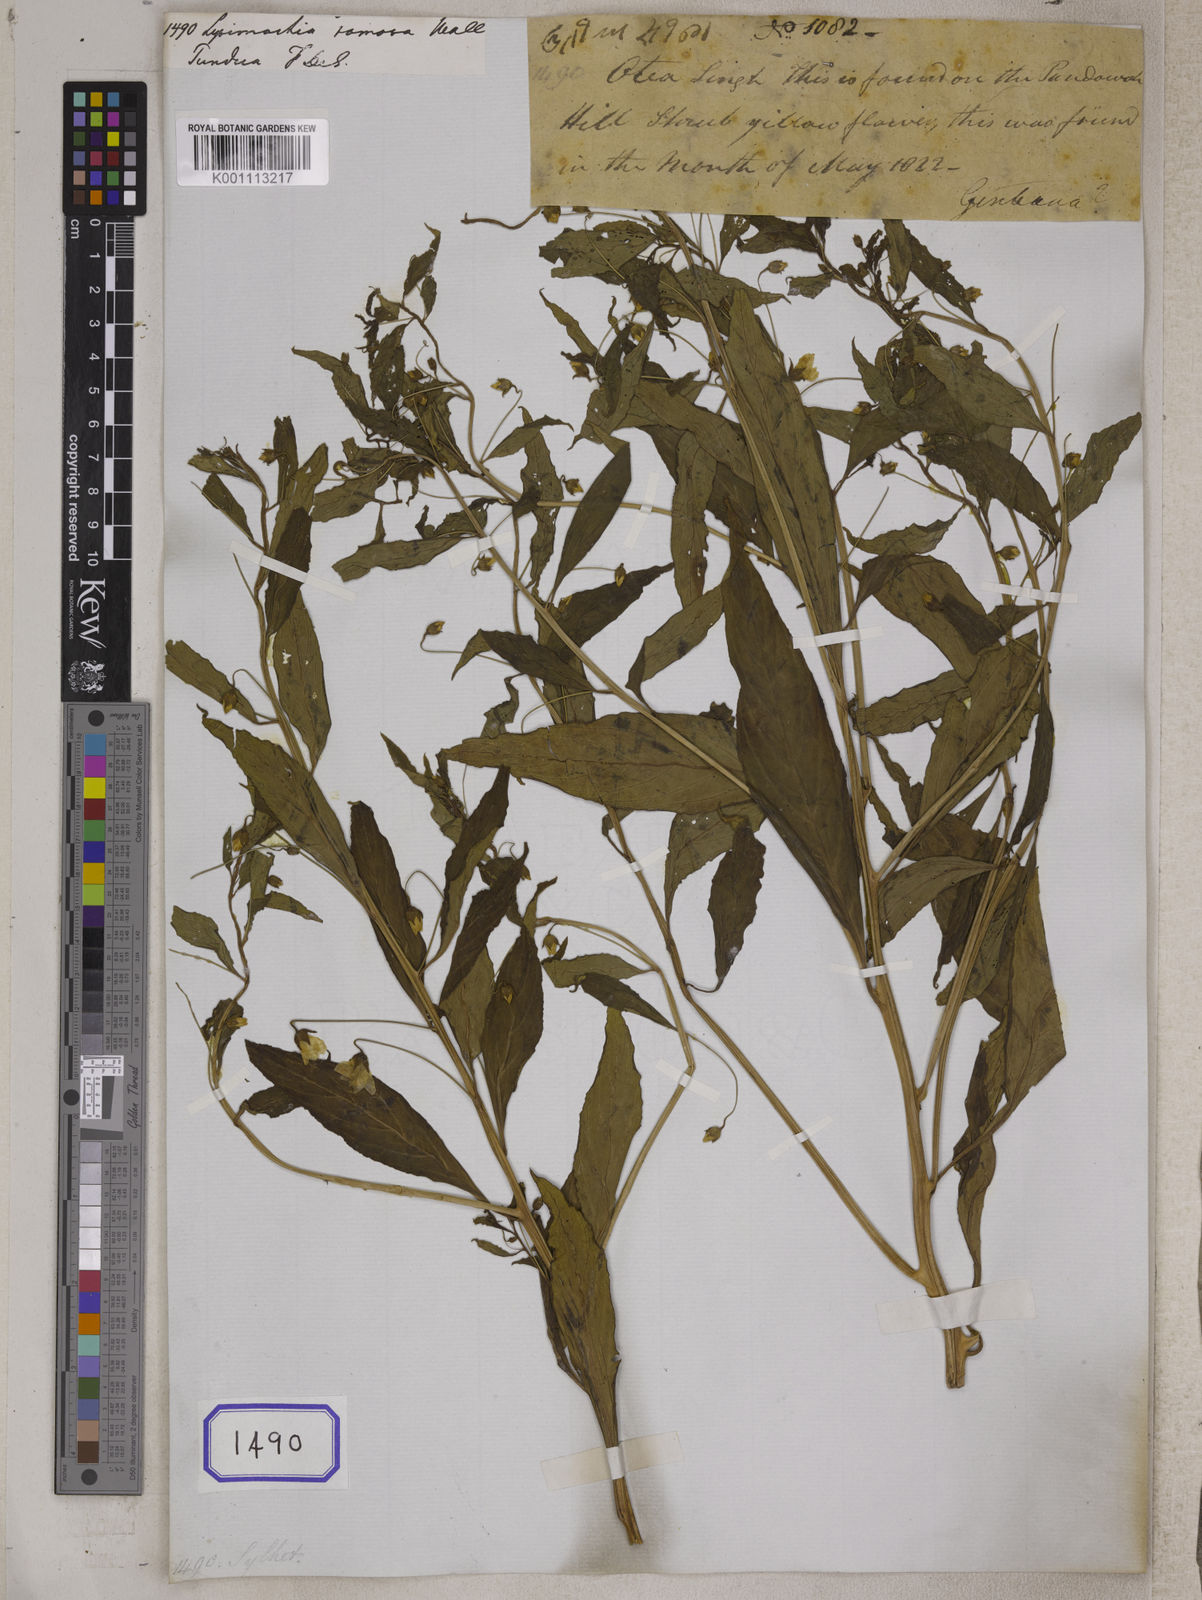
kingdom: Plantae
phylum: Tracheophyta
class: Magnoliopsida
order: Ericales
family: Primulaceae
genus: Lysimachia
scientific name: Lysimachia laxa
